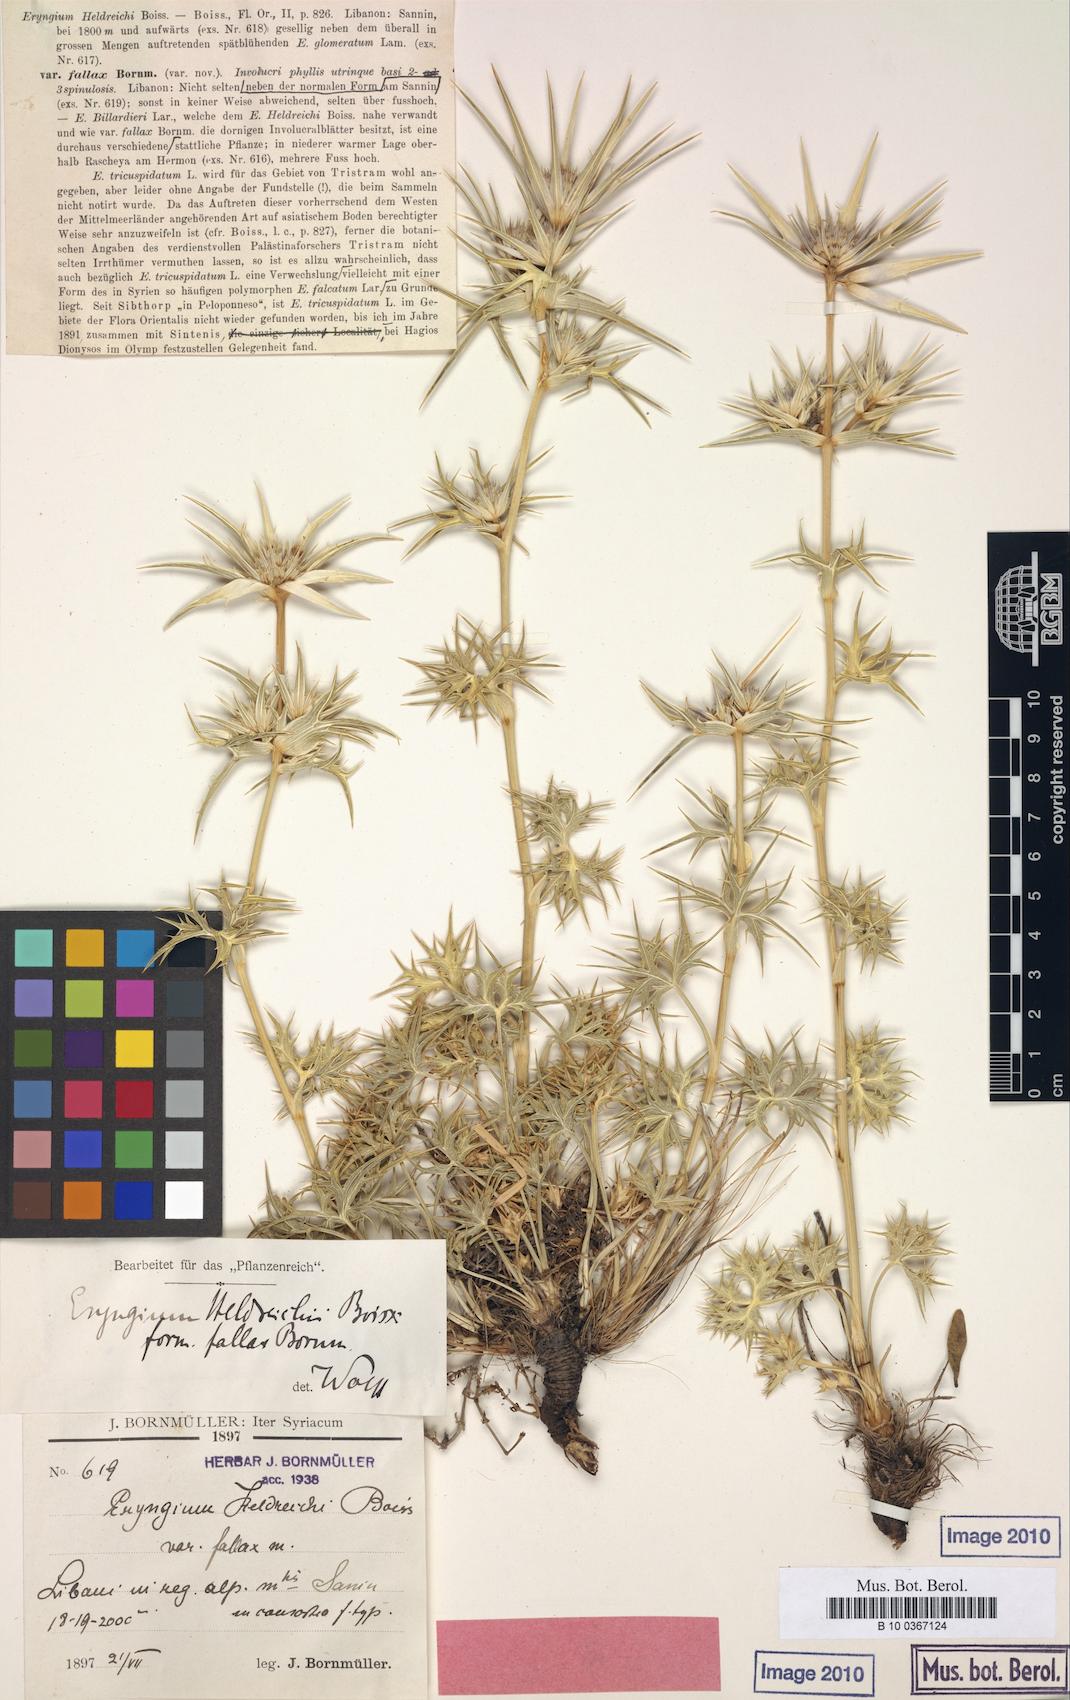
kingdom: Plantae
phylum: Tracheophyta
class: Magnoliopsida
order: Apiales
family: Apiaceae
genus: Eryngium
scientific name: Eryngium heldreichii
